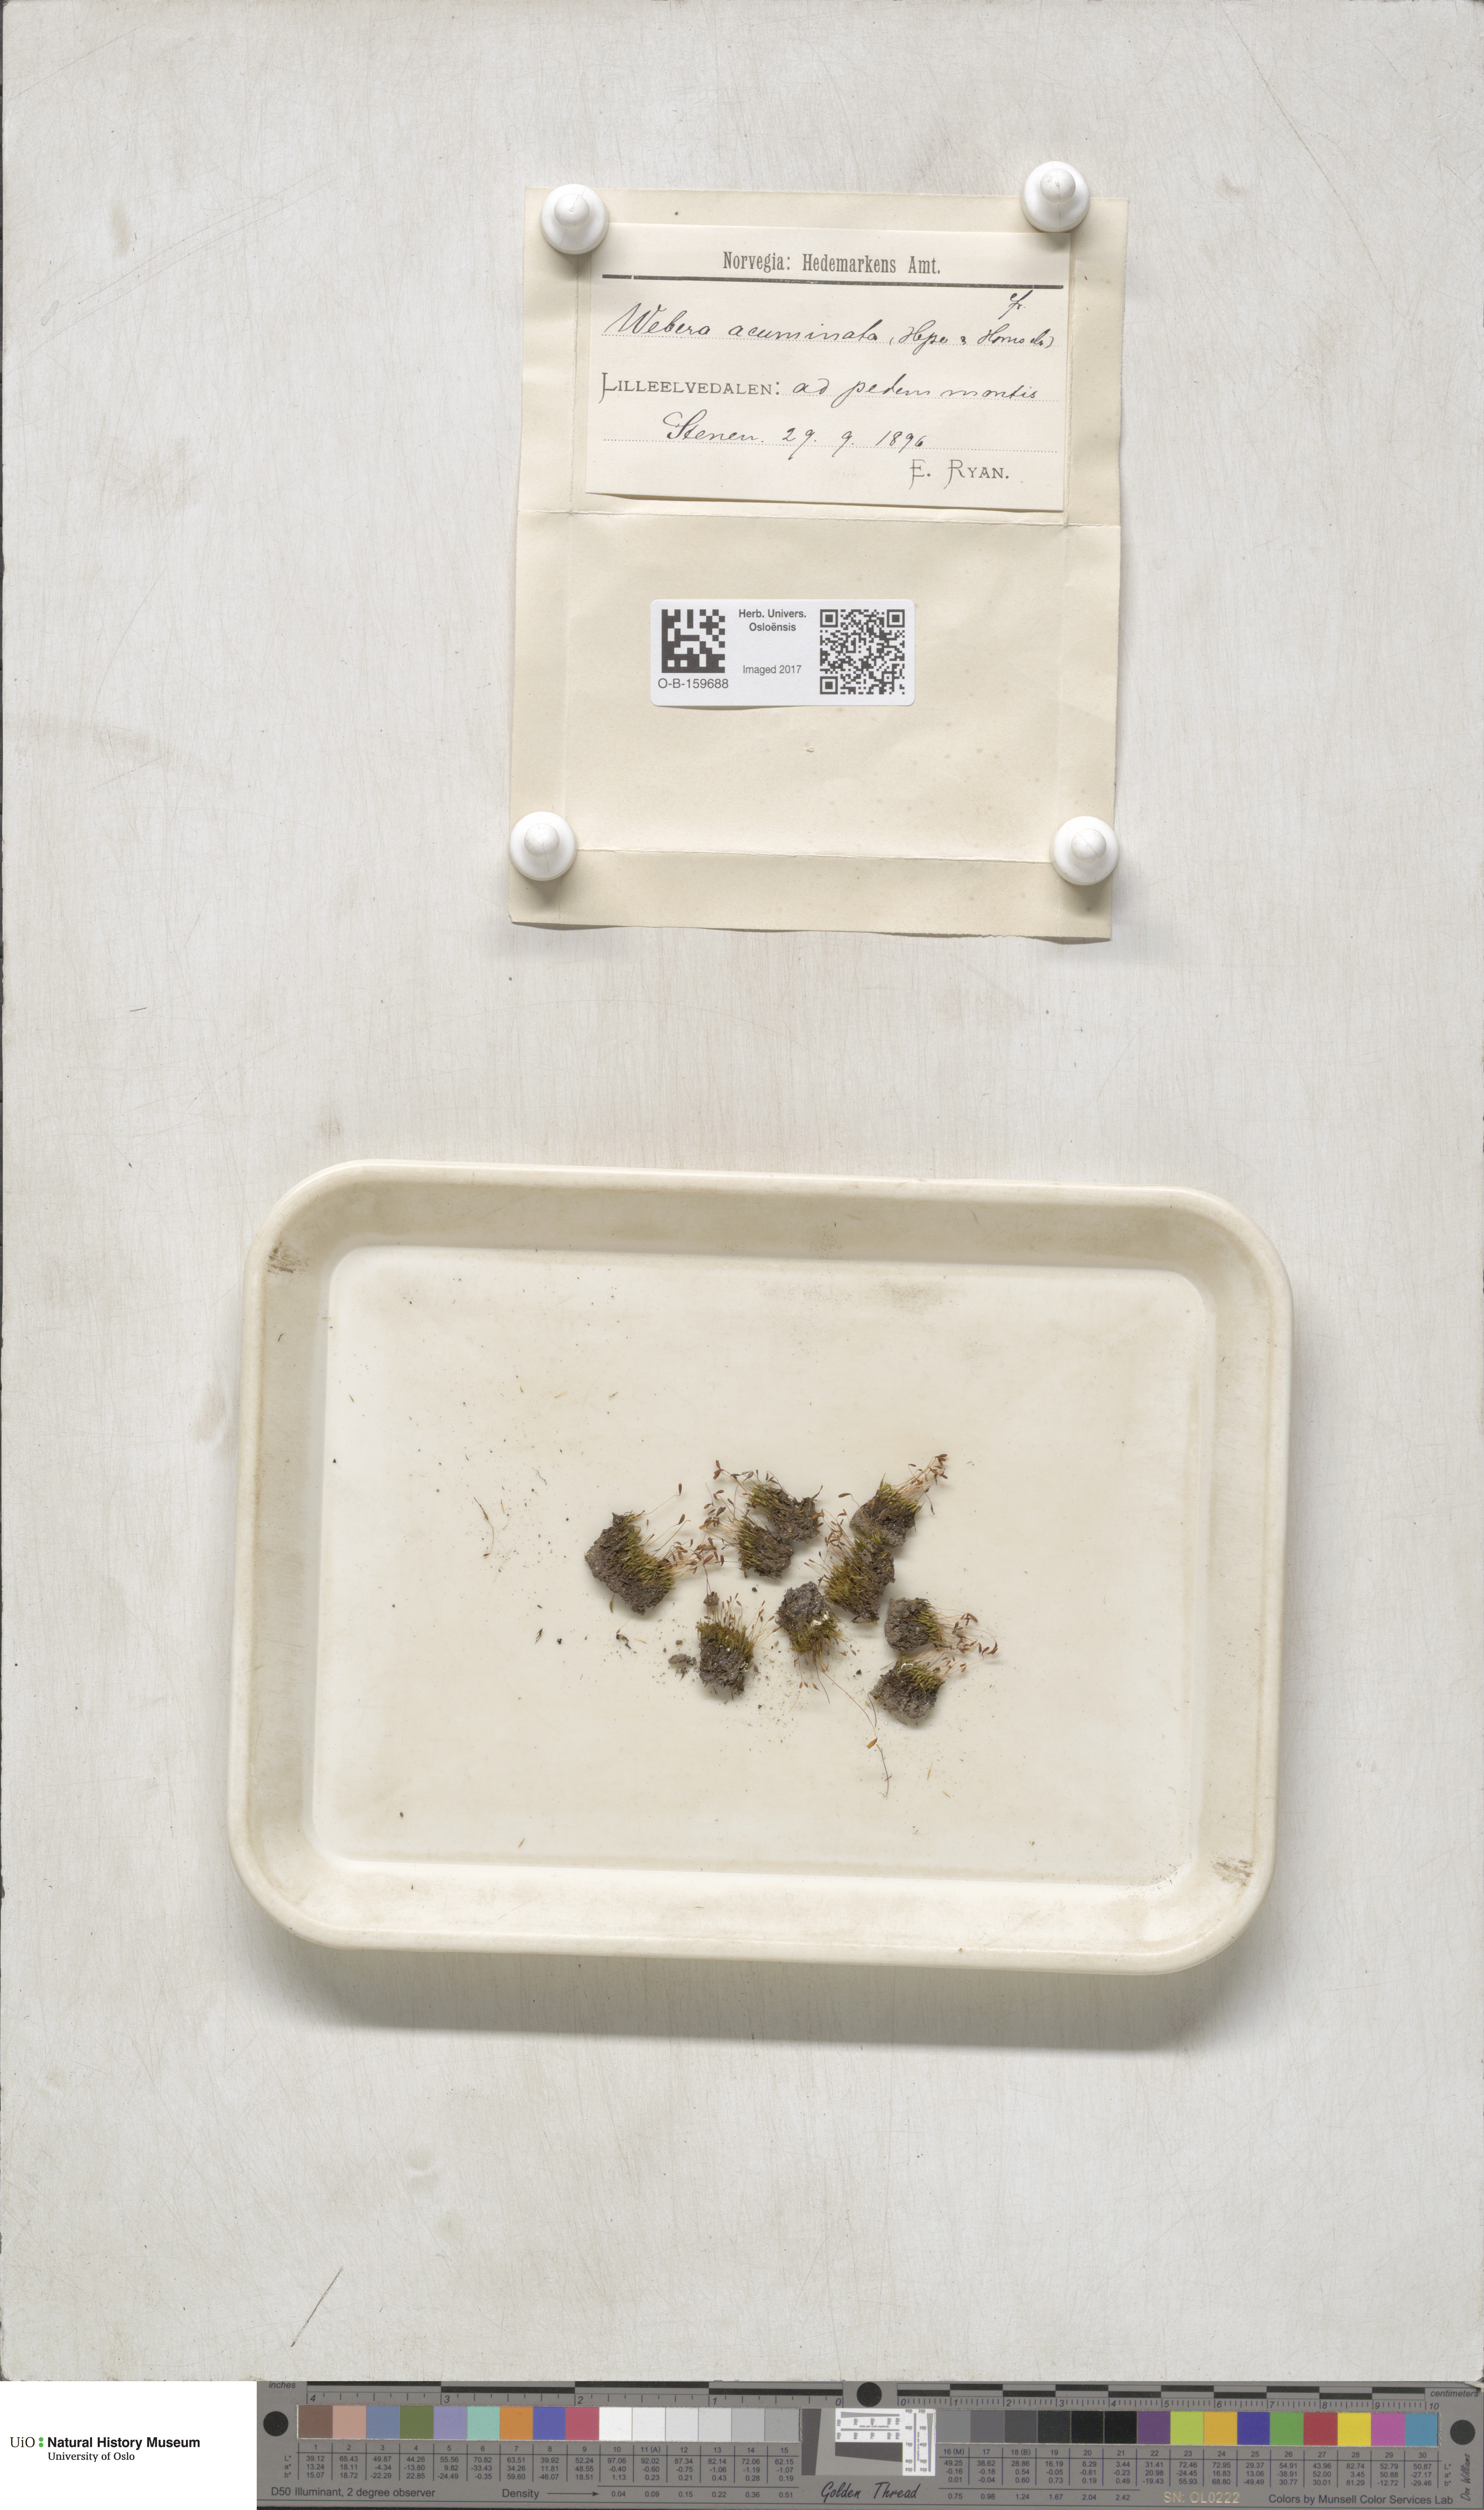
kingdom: Plantae
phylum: Bryophyta
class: Bryopsida
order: Bryales
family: Mniaceae
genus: Pohlia
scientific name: Pohlia elongata
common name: Long-fruited thread-moss
